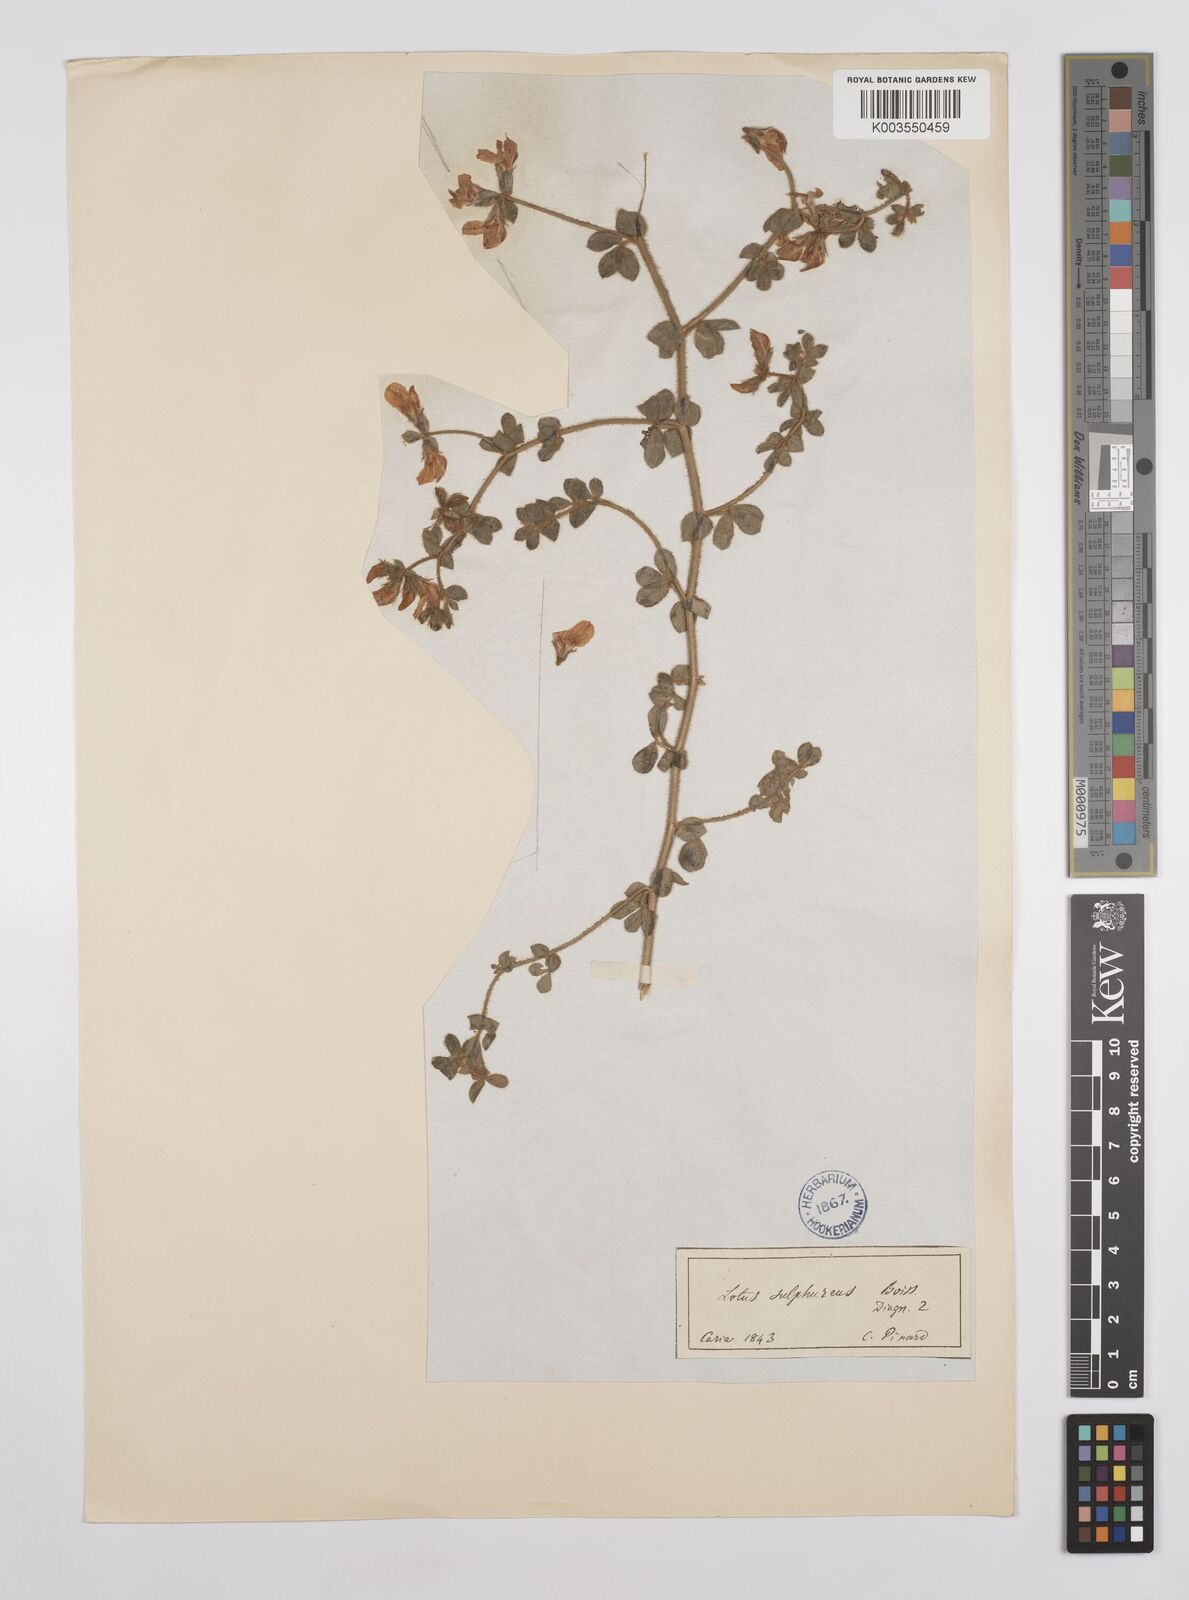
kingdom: Plantae
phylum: Tracheophyta
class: Magnoliopsida
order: Fabales
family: Fabaceae
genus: Lotus
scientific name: Lotus aegaeus
